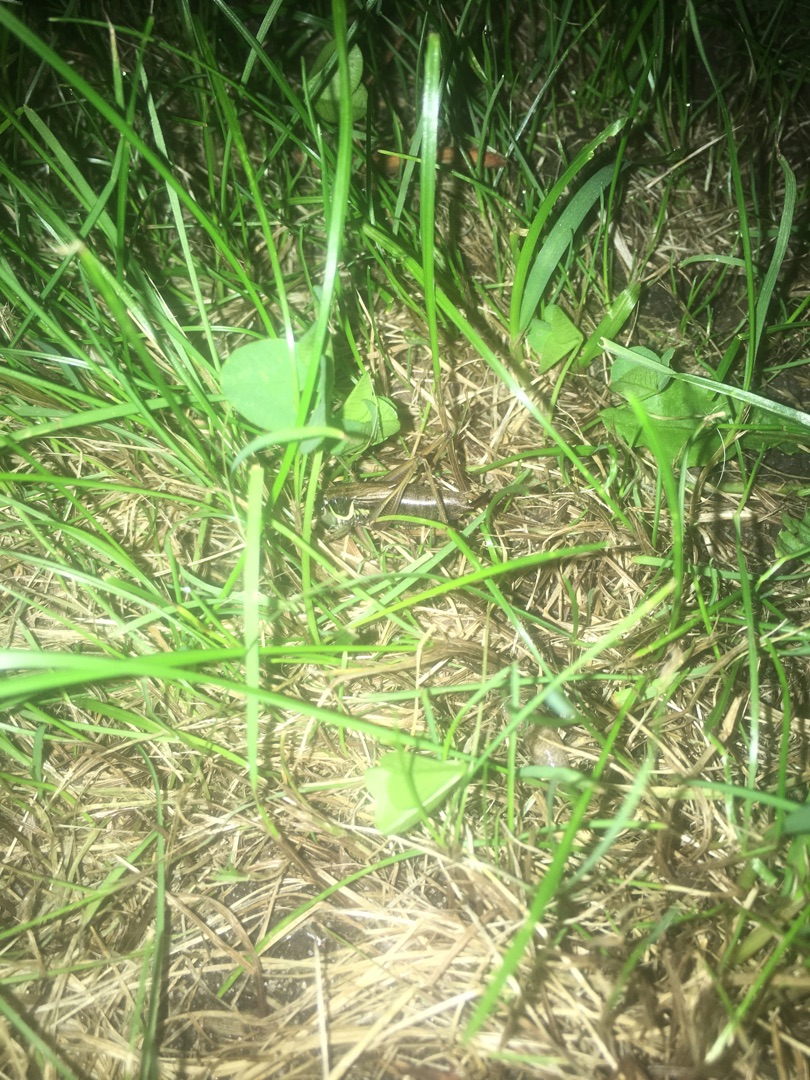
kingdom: Animalia
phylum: Arthropoda
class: Insecta
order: Orthoptera
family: Tettigoniidae
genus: Roeseliana
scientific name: Roeseliana roeselii
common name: Cikadegræshoppe
